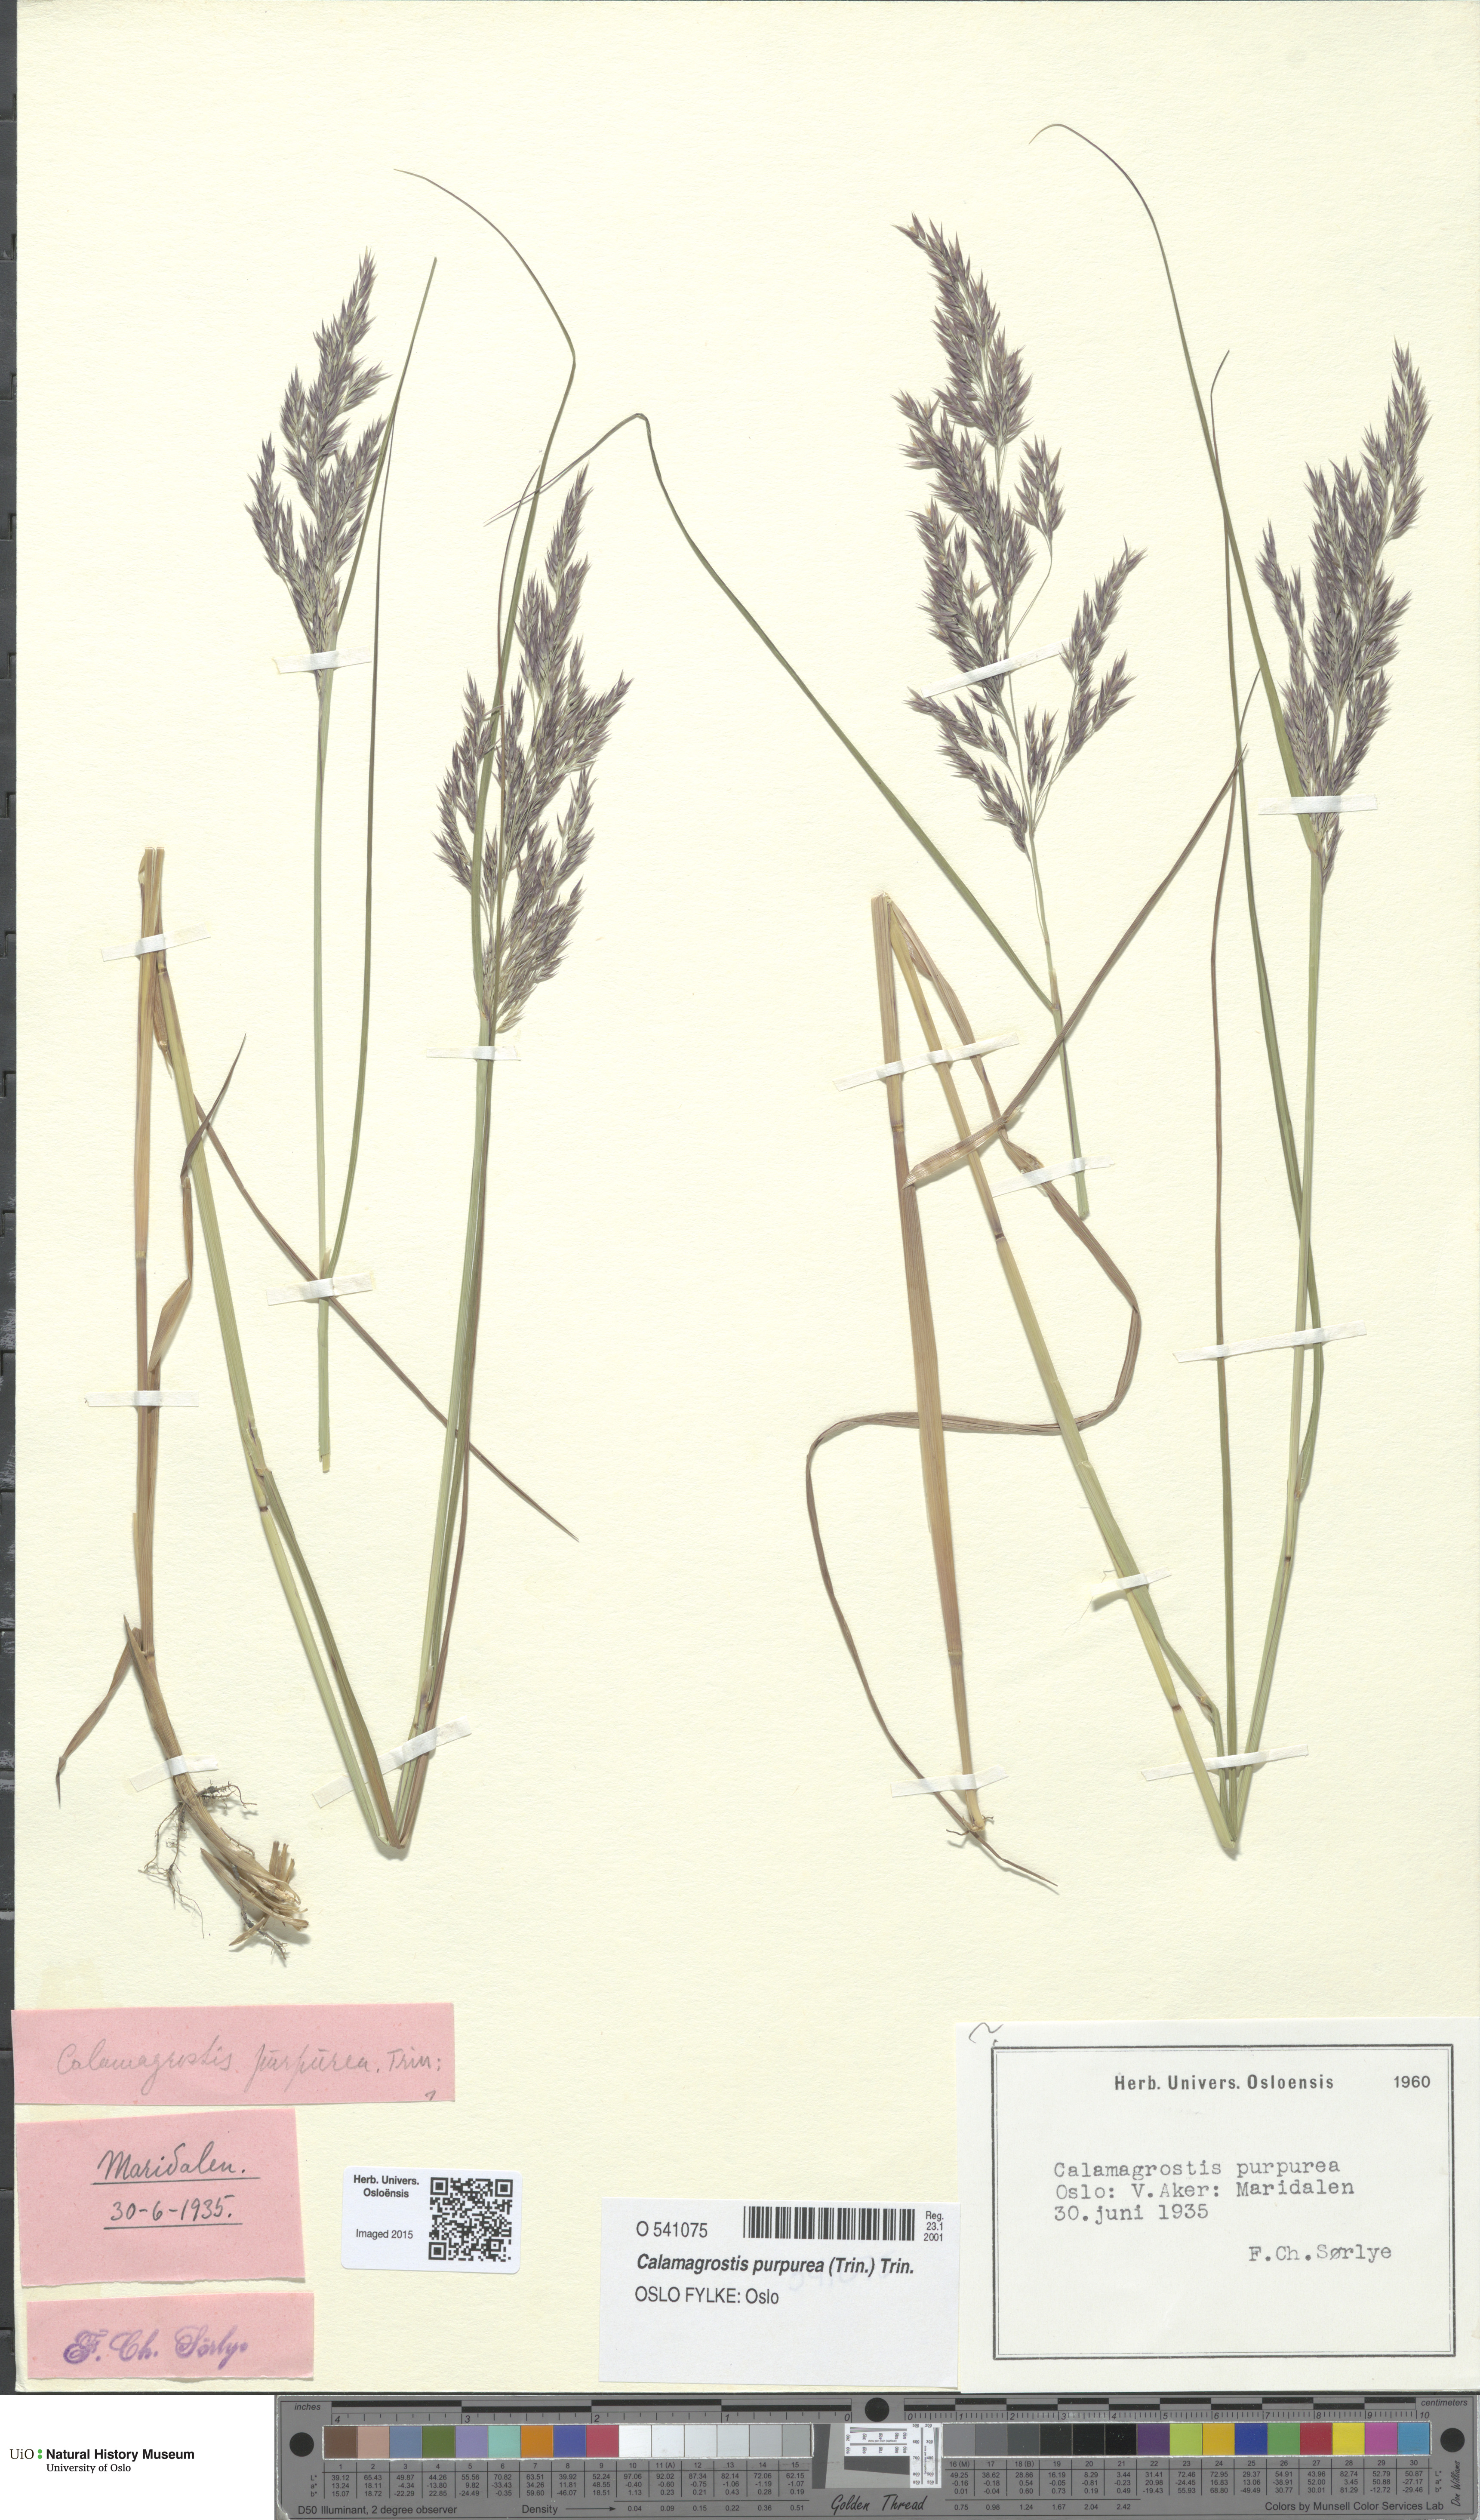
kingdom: Plantae
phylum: Tracheophyta
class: Liliopsida
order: Poales
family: Poaceae
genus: Calamagrostis
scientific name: Calamagrostis purpurea
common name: Scandinavian small-reed
